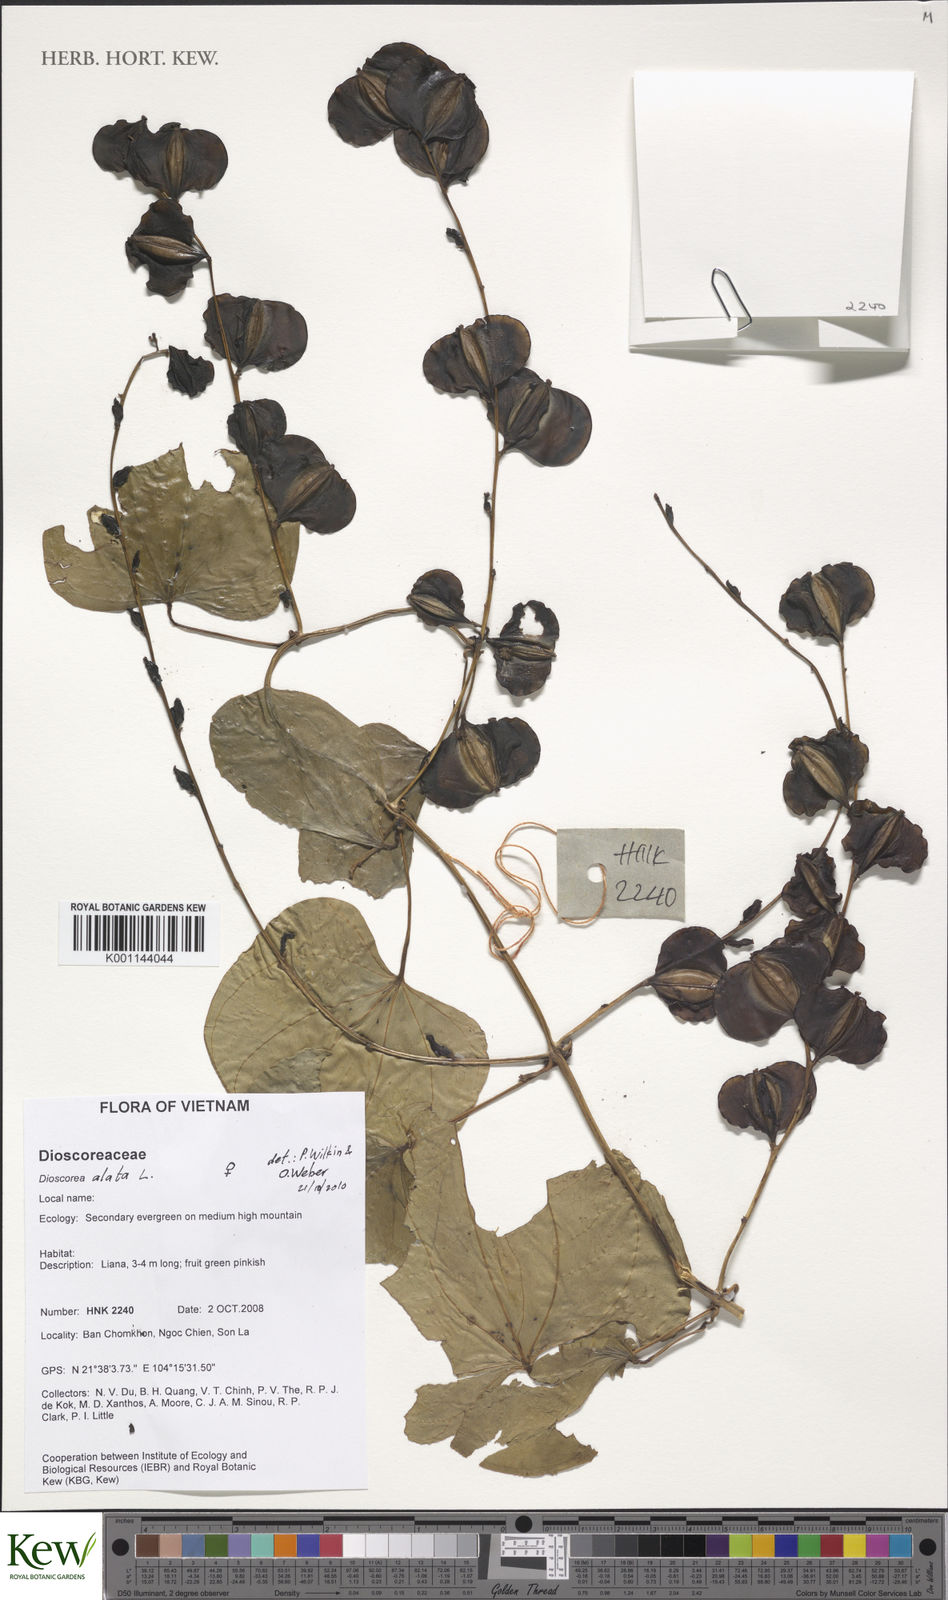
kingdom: Plantae
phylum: Tracheophyta
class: Liliopsida
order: Dioscoreales
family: Dioscoreaceae
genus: Dioscorea
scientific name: Dioscorea alata
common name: Water yam
